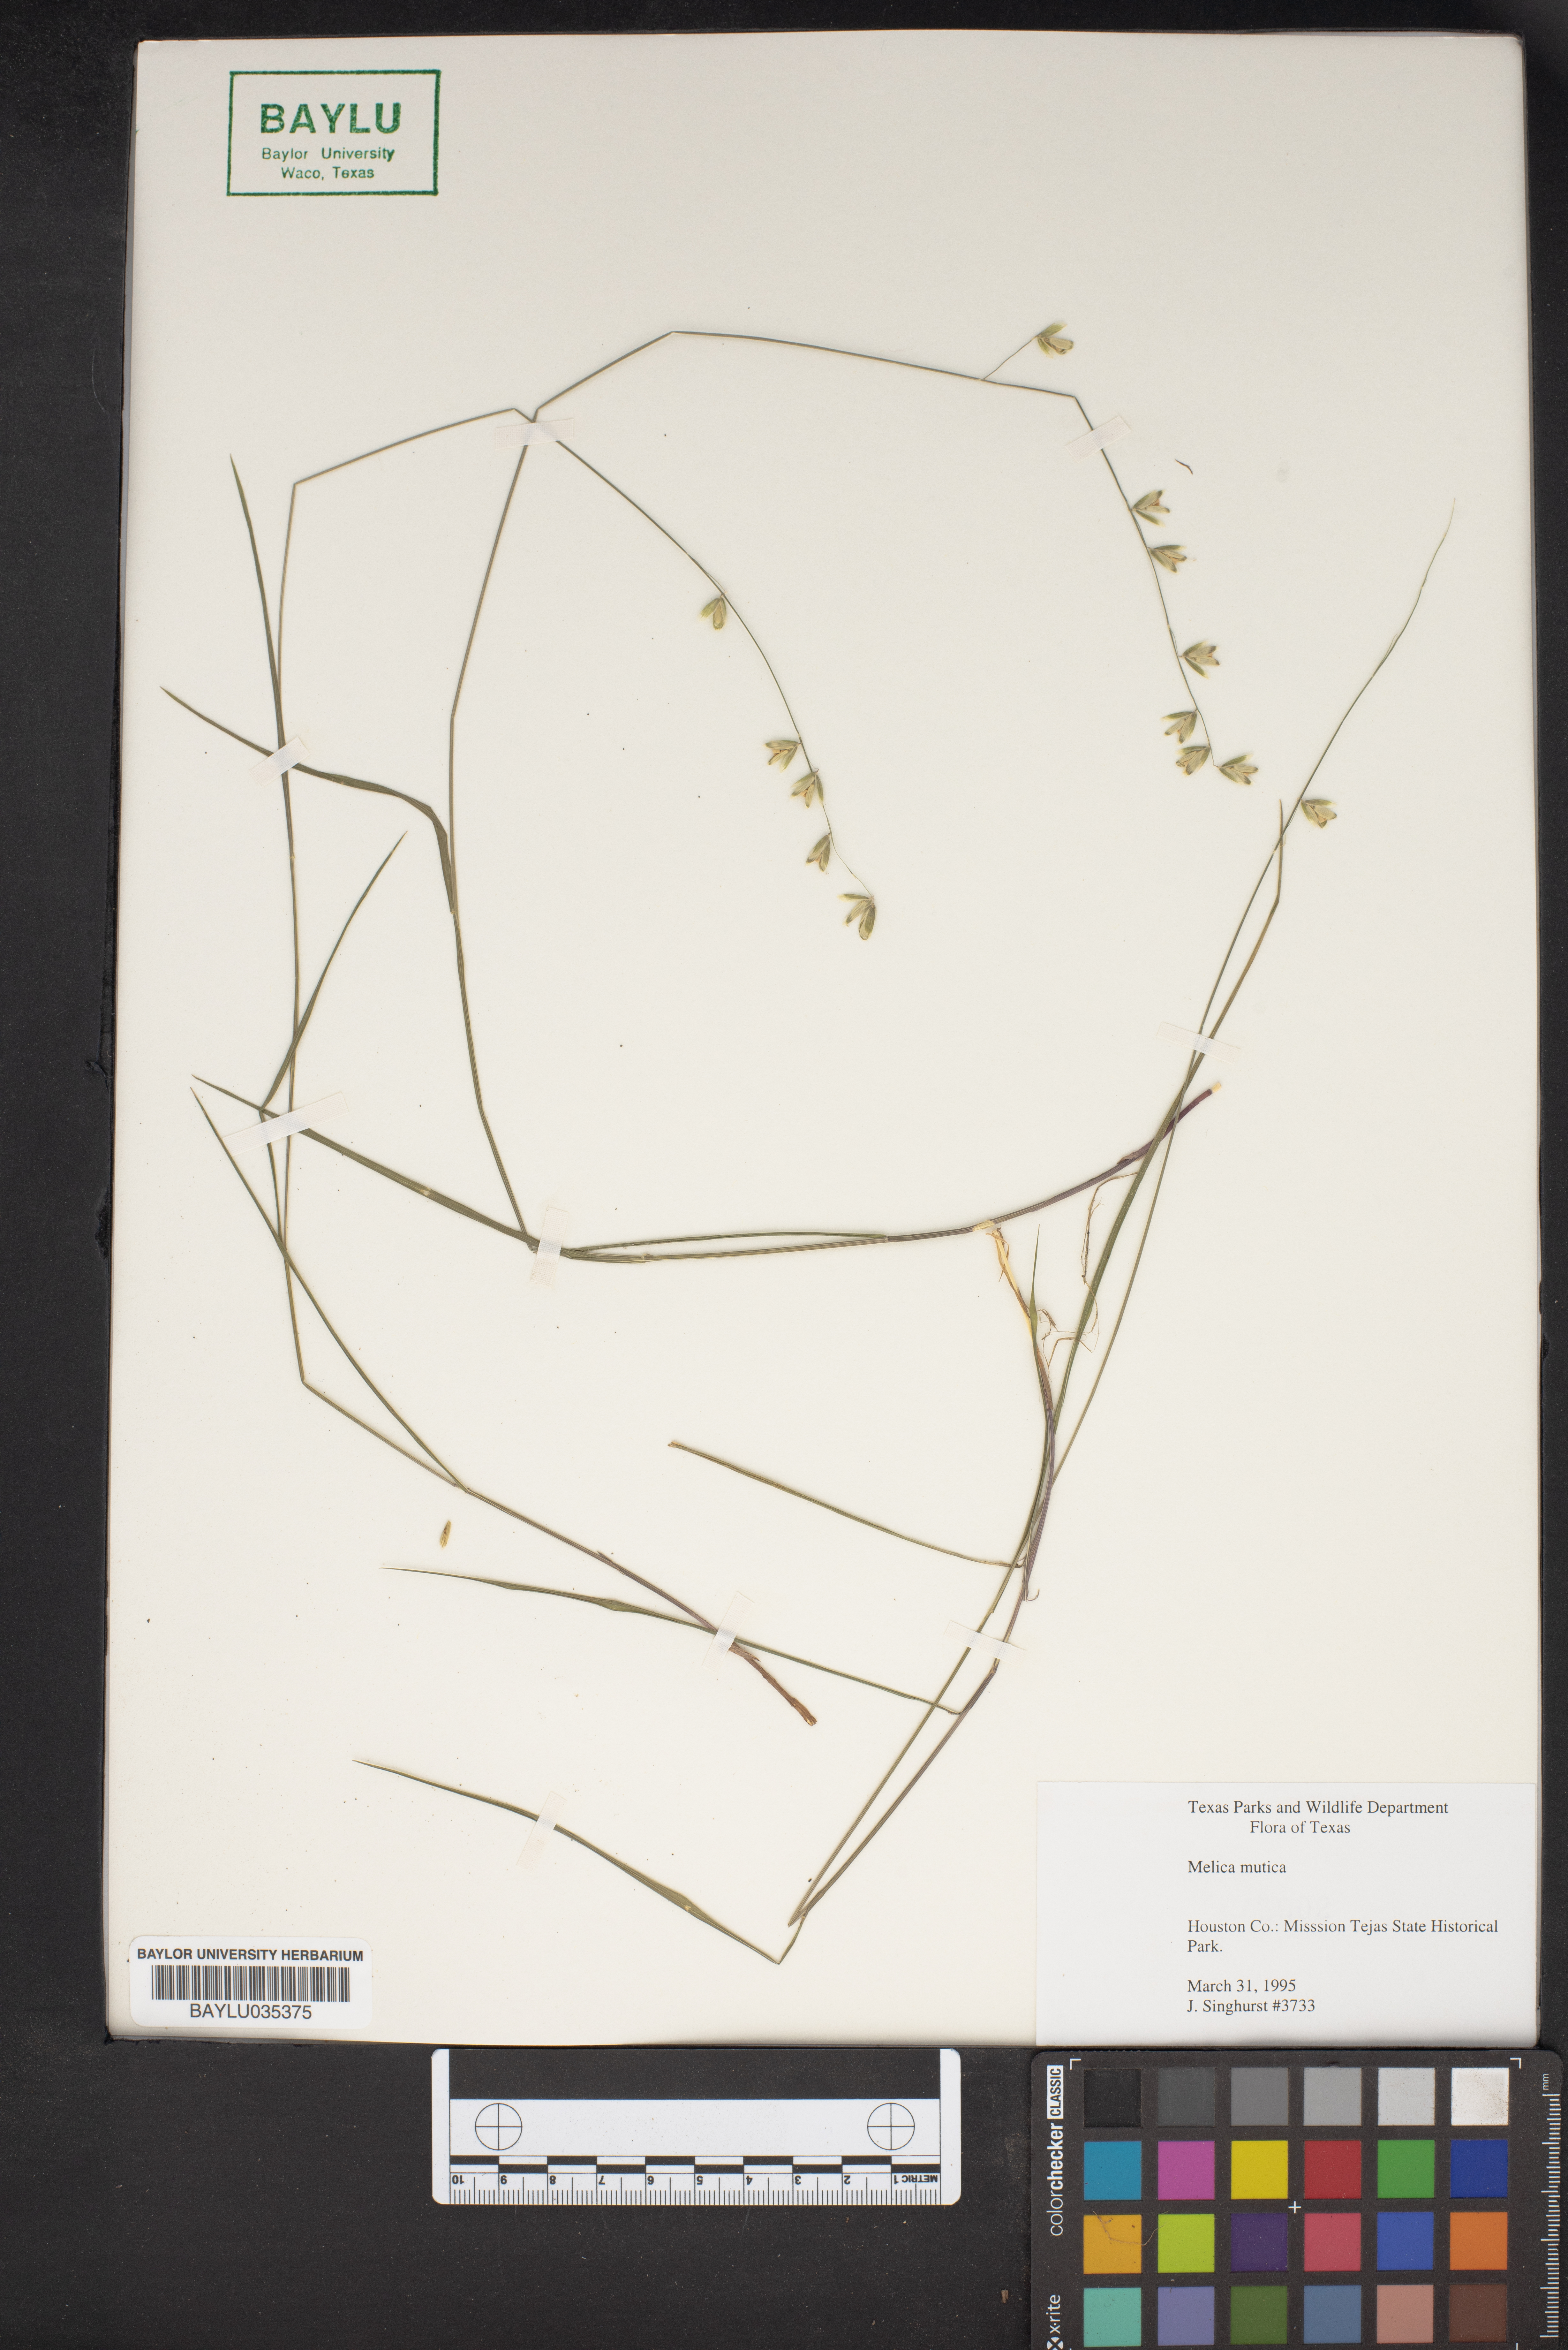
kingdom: Plantae
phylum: Tracheophyta
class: Liliopsida
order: Poales
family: Poaceae
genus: Melica
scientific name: Melica mutica
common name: Two-flower melic
